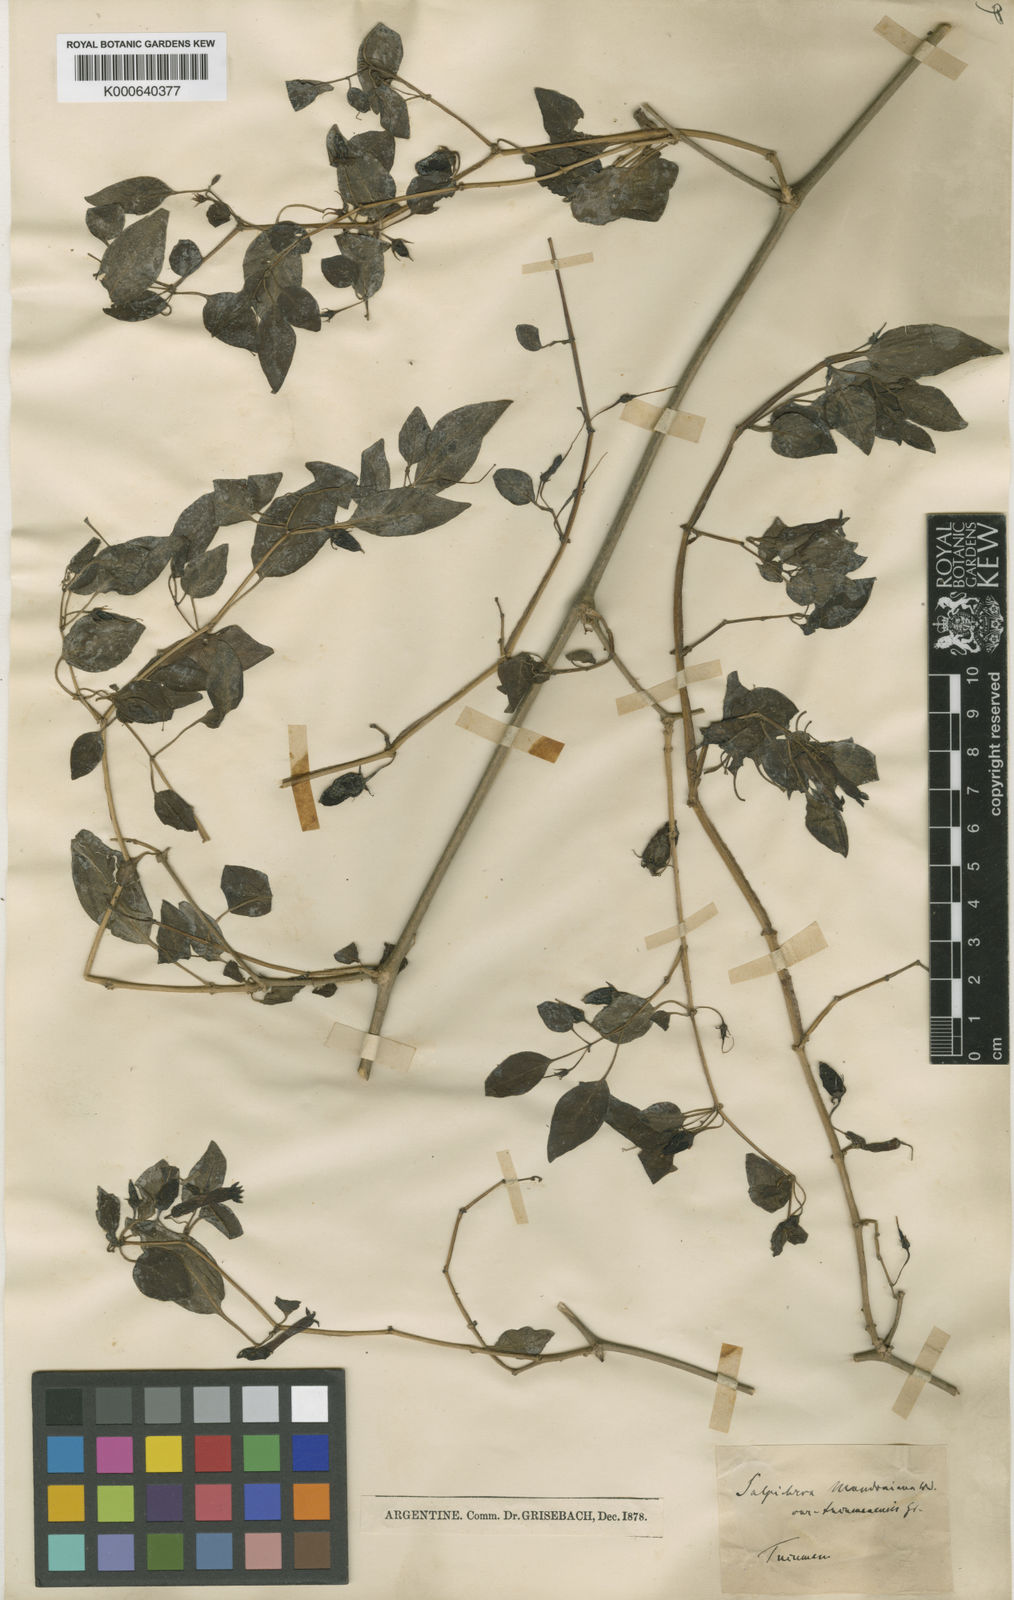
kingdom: Plantae
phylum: Tracheophyta
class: Magnoliopsida
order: Solanales
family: Solanaceae
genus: Salpichroa
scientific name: Salpichroa tristis
